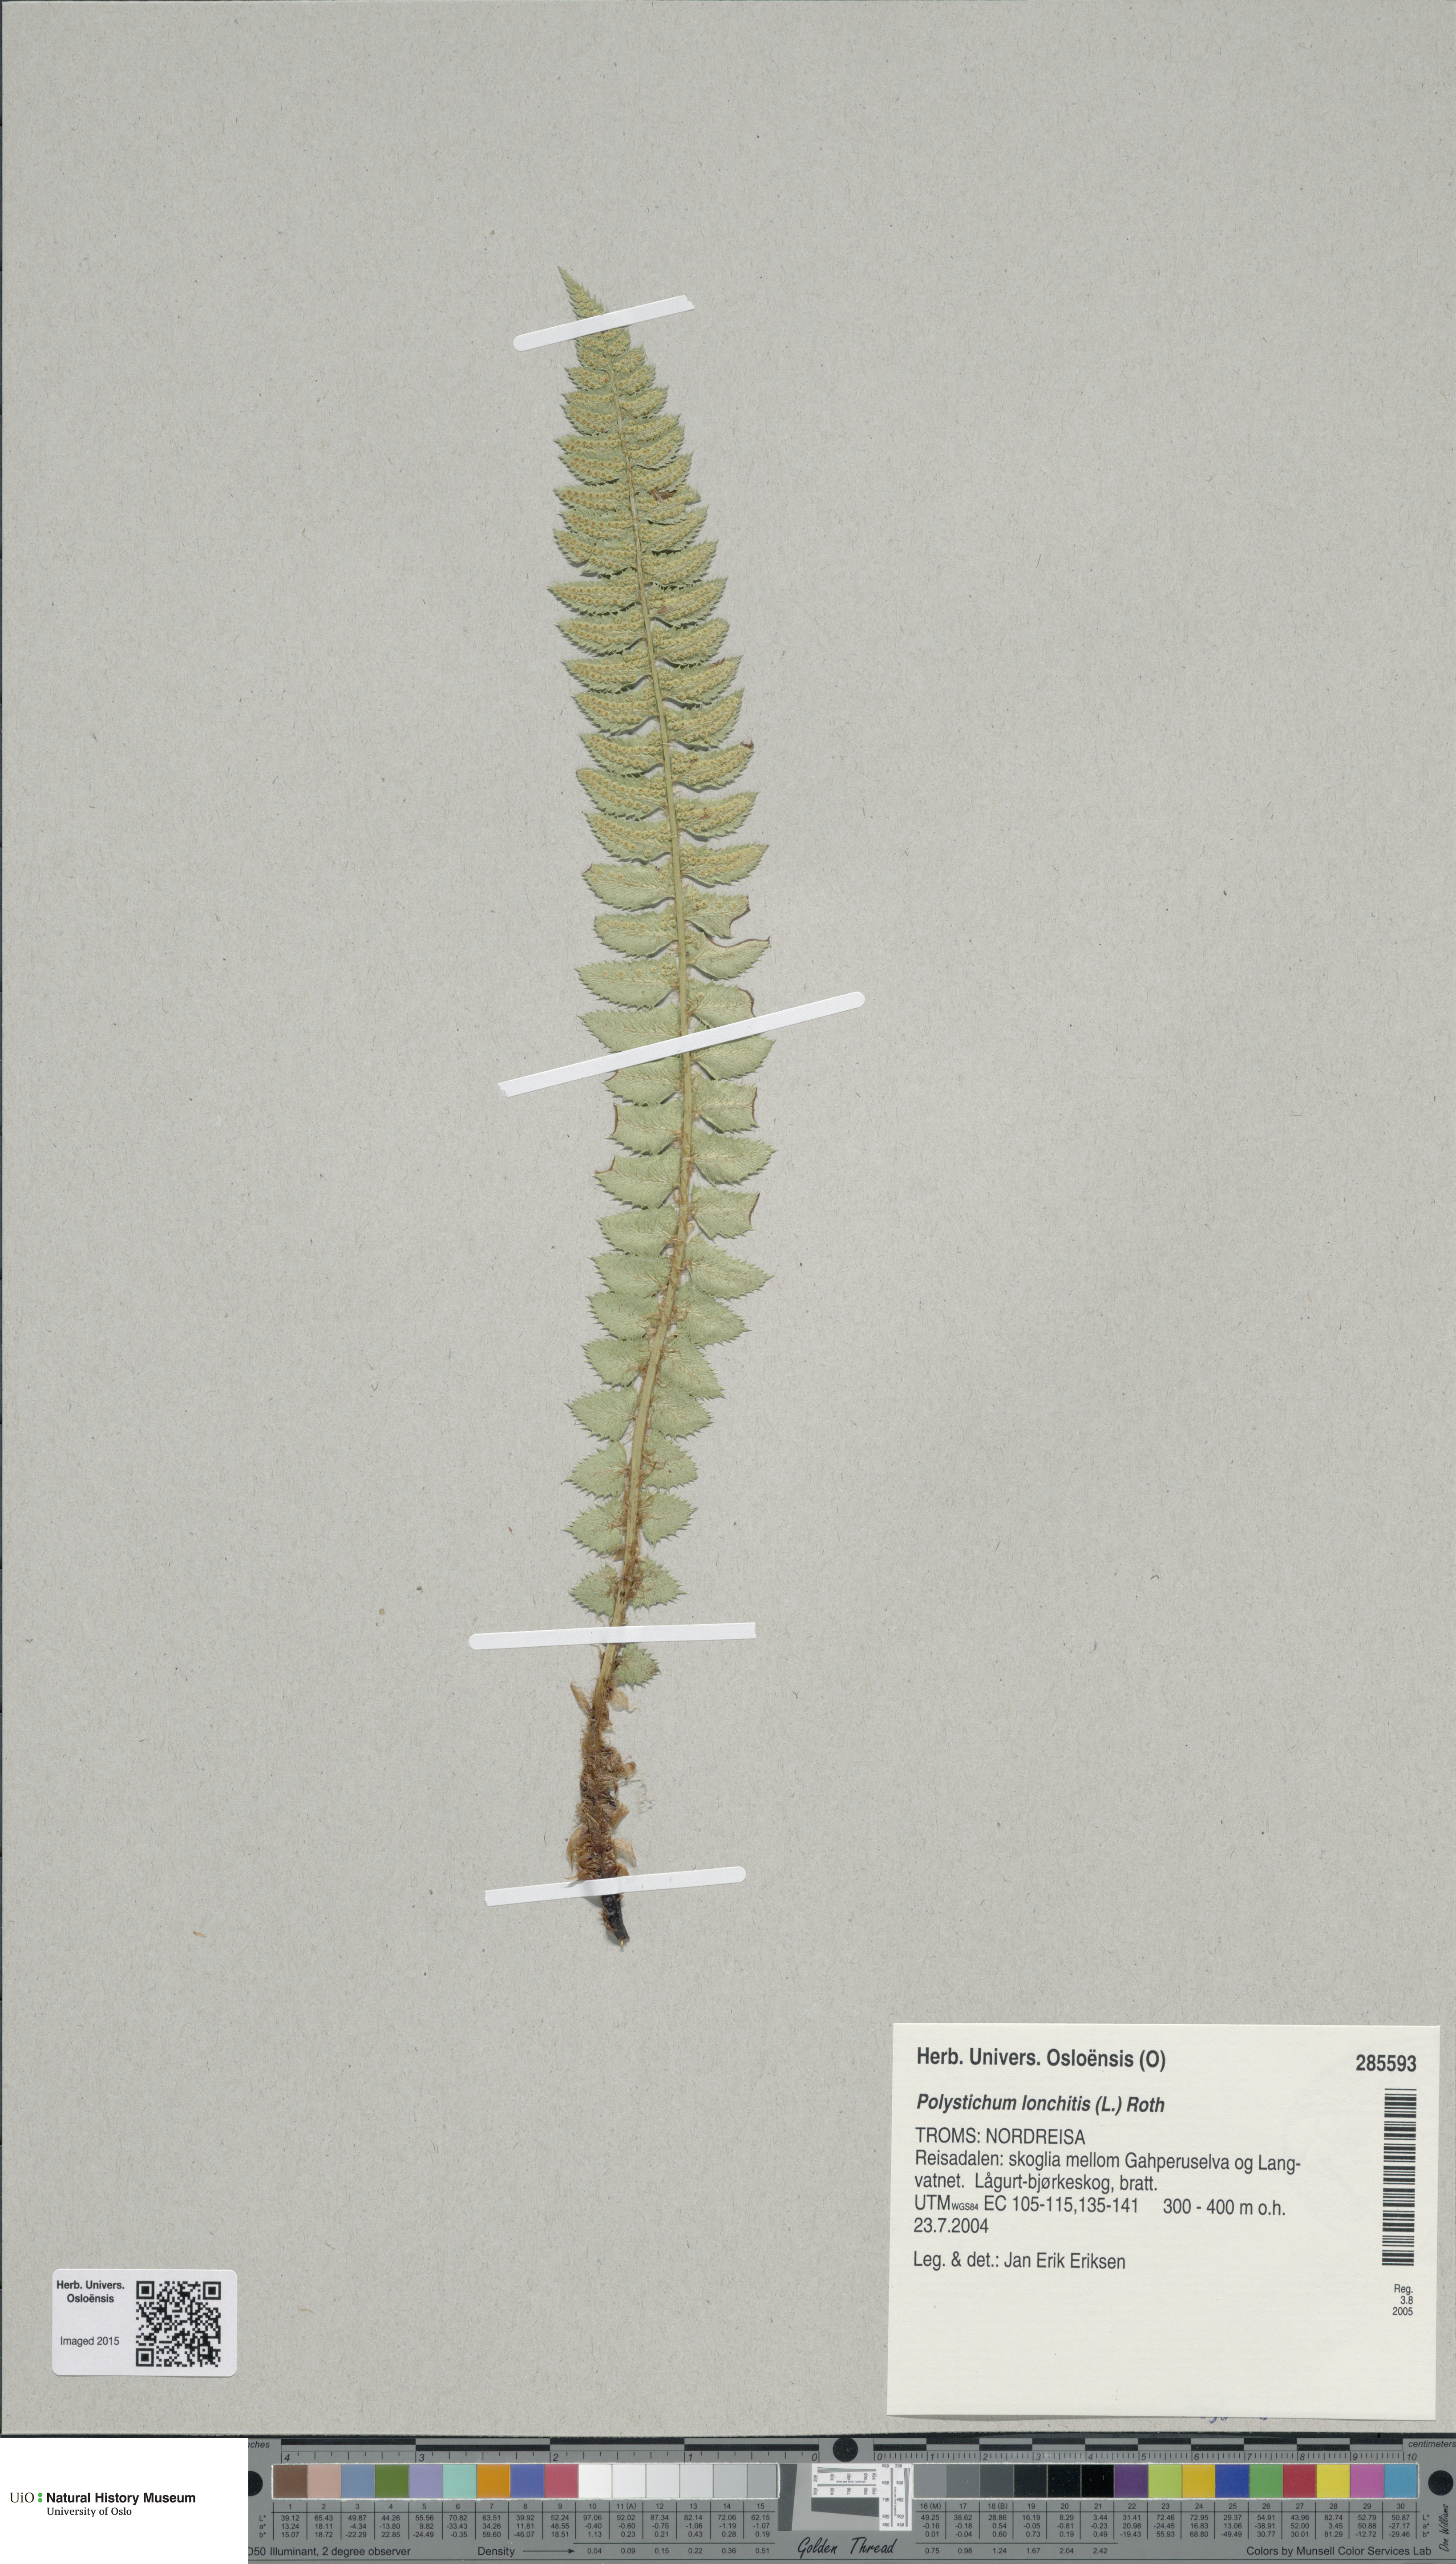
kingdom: Plantae
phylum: Tracheophyta
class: Polypodiopsida
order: Polypodiales
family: Dryopteridaceae
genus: Polystichum
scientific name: Polystichum lonchitis
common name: Holly fern
